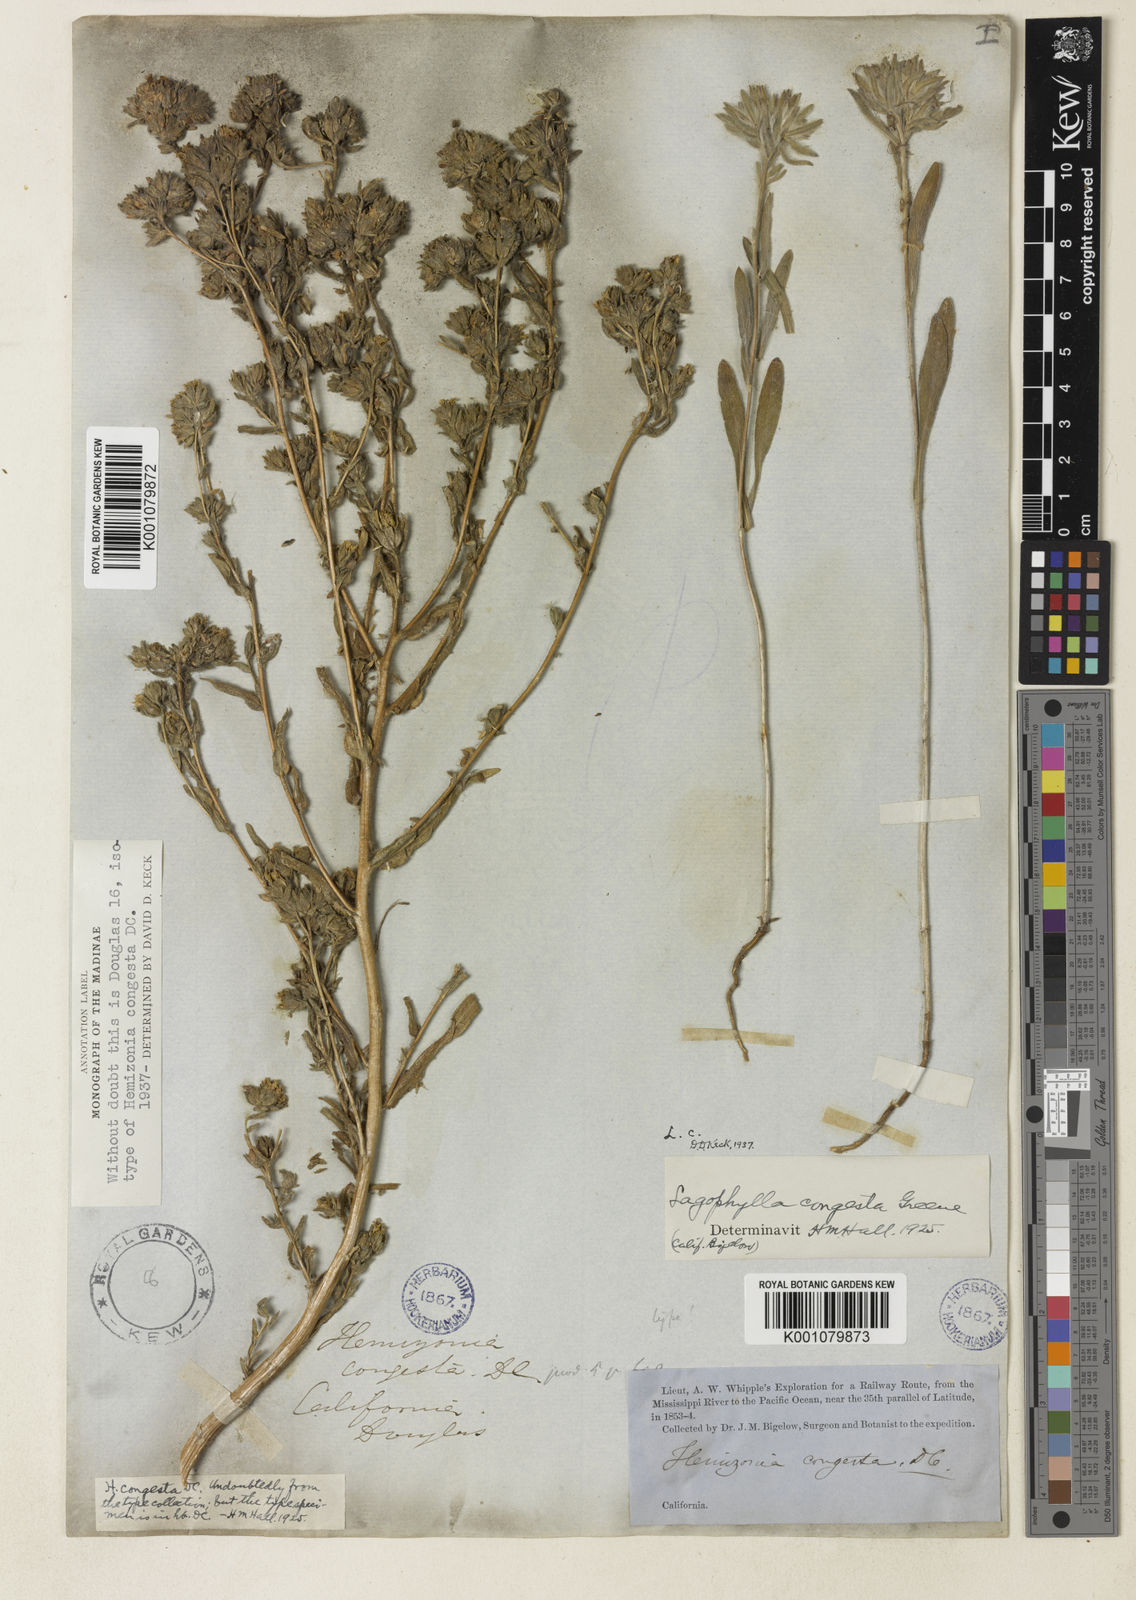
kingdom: Plantae
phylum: Tracheophyta
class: Magnoliopsida
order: Asterales
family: Asteraceae
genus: Hemizonia
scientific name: Hemizonia congesta
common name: Hayfield tarweed
